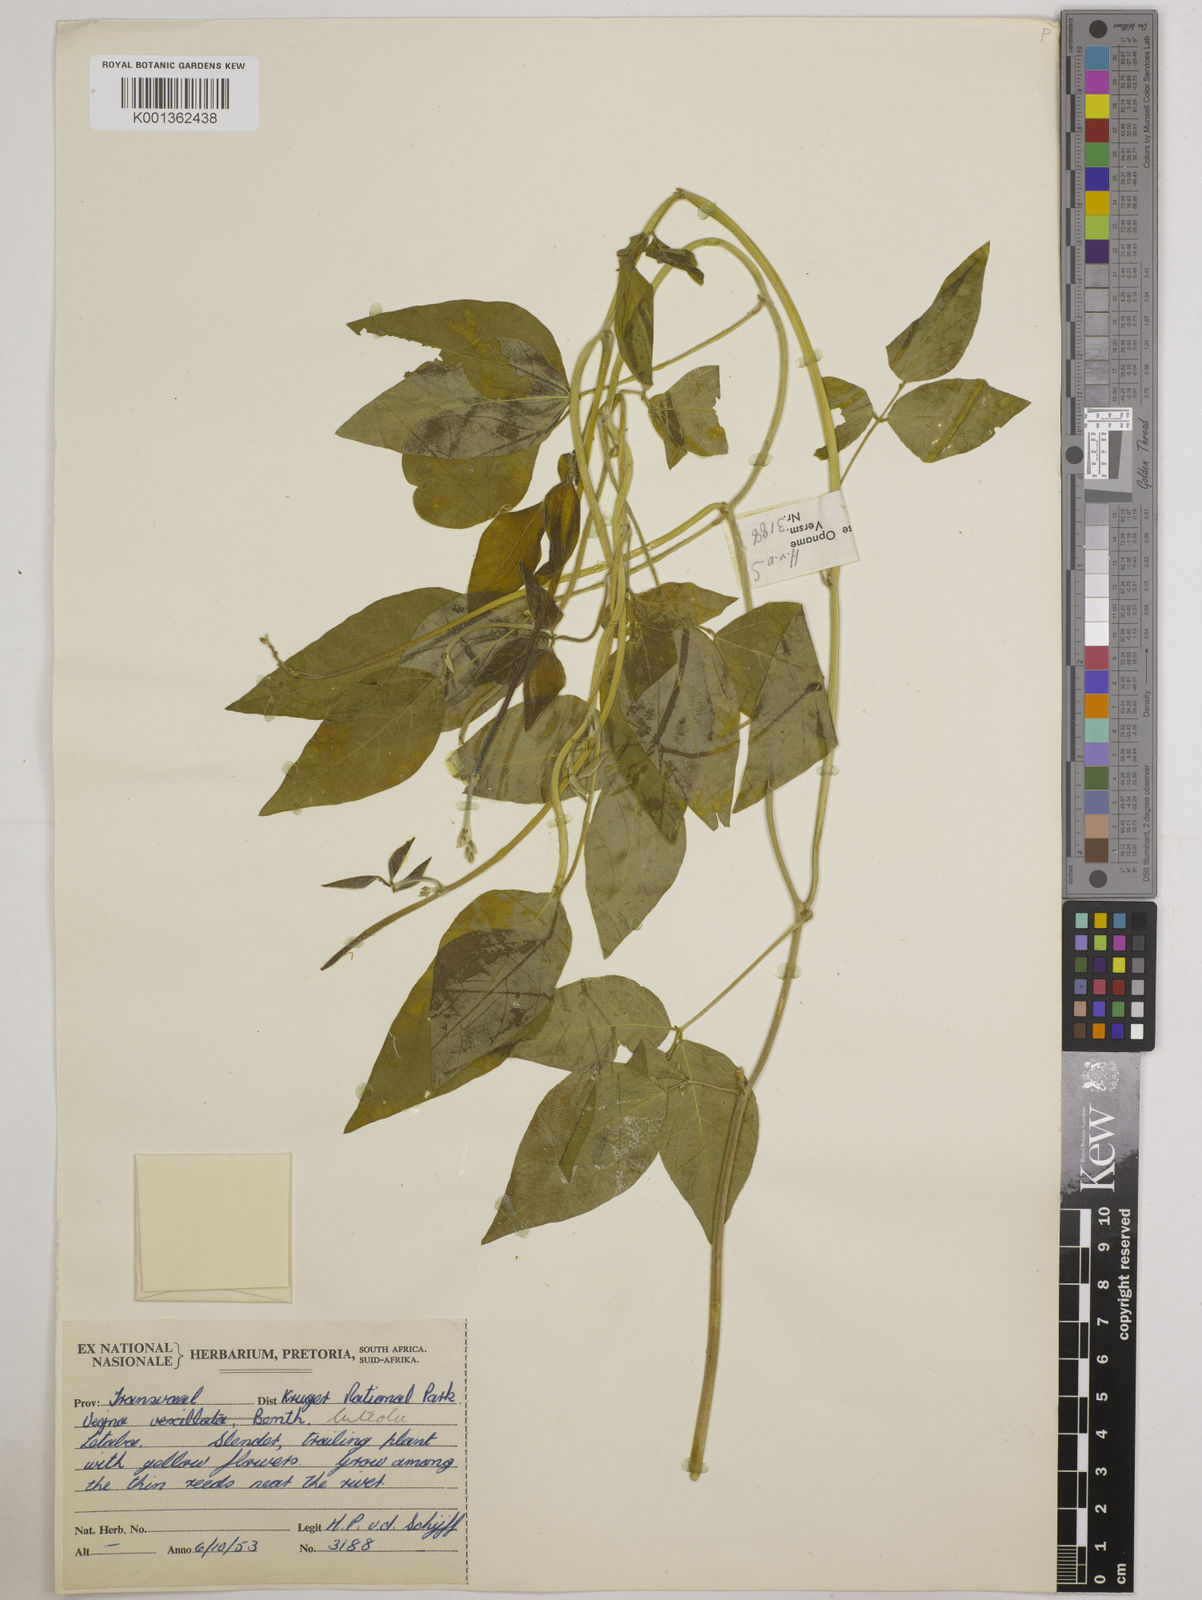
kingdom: Plantae
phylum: Tracheophyta
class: Magnoliopsida
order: Fabales
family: Fabaceae
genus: Vigna
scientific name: Vigna luteola
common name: Hairypod cowpea
